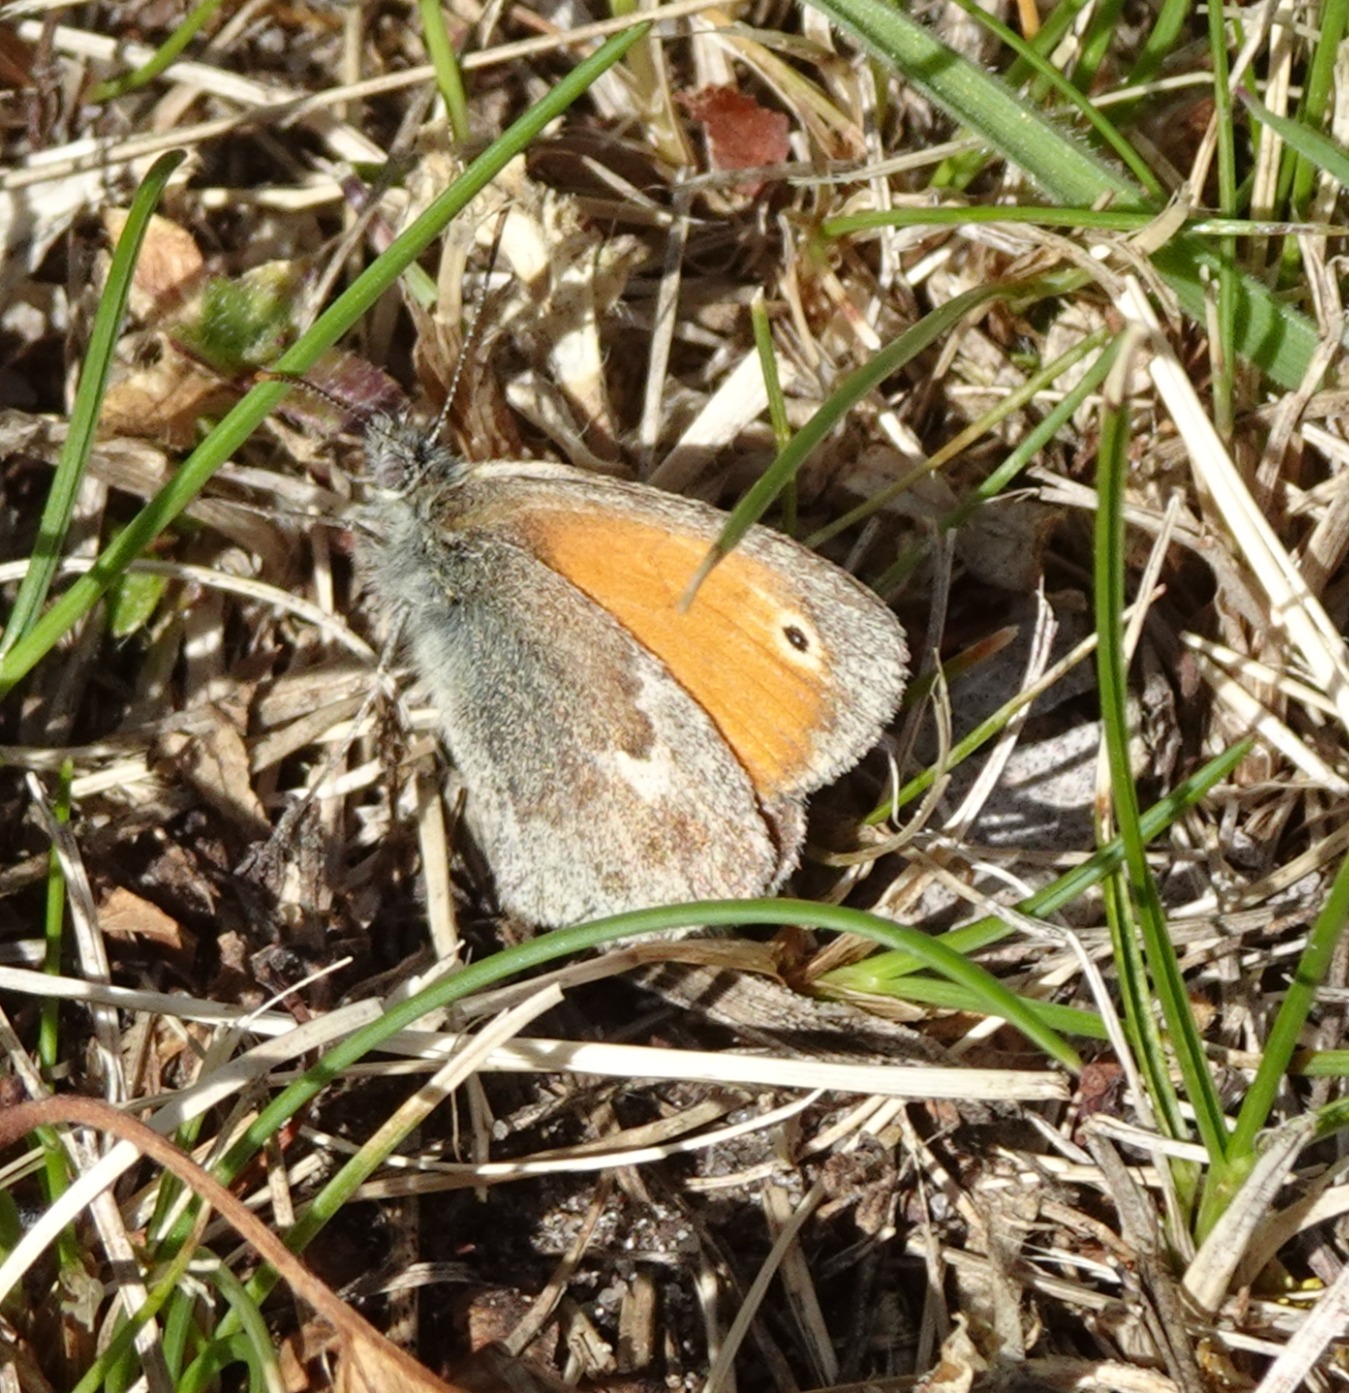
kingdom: Animalia
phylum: Arthropoda
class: Insecta
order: Lepidoptera
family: Nymphalidae
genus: Coenonympha
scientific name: Coenonympha pamphilus
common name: Okkergul randøje
